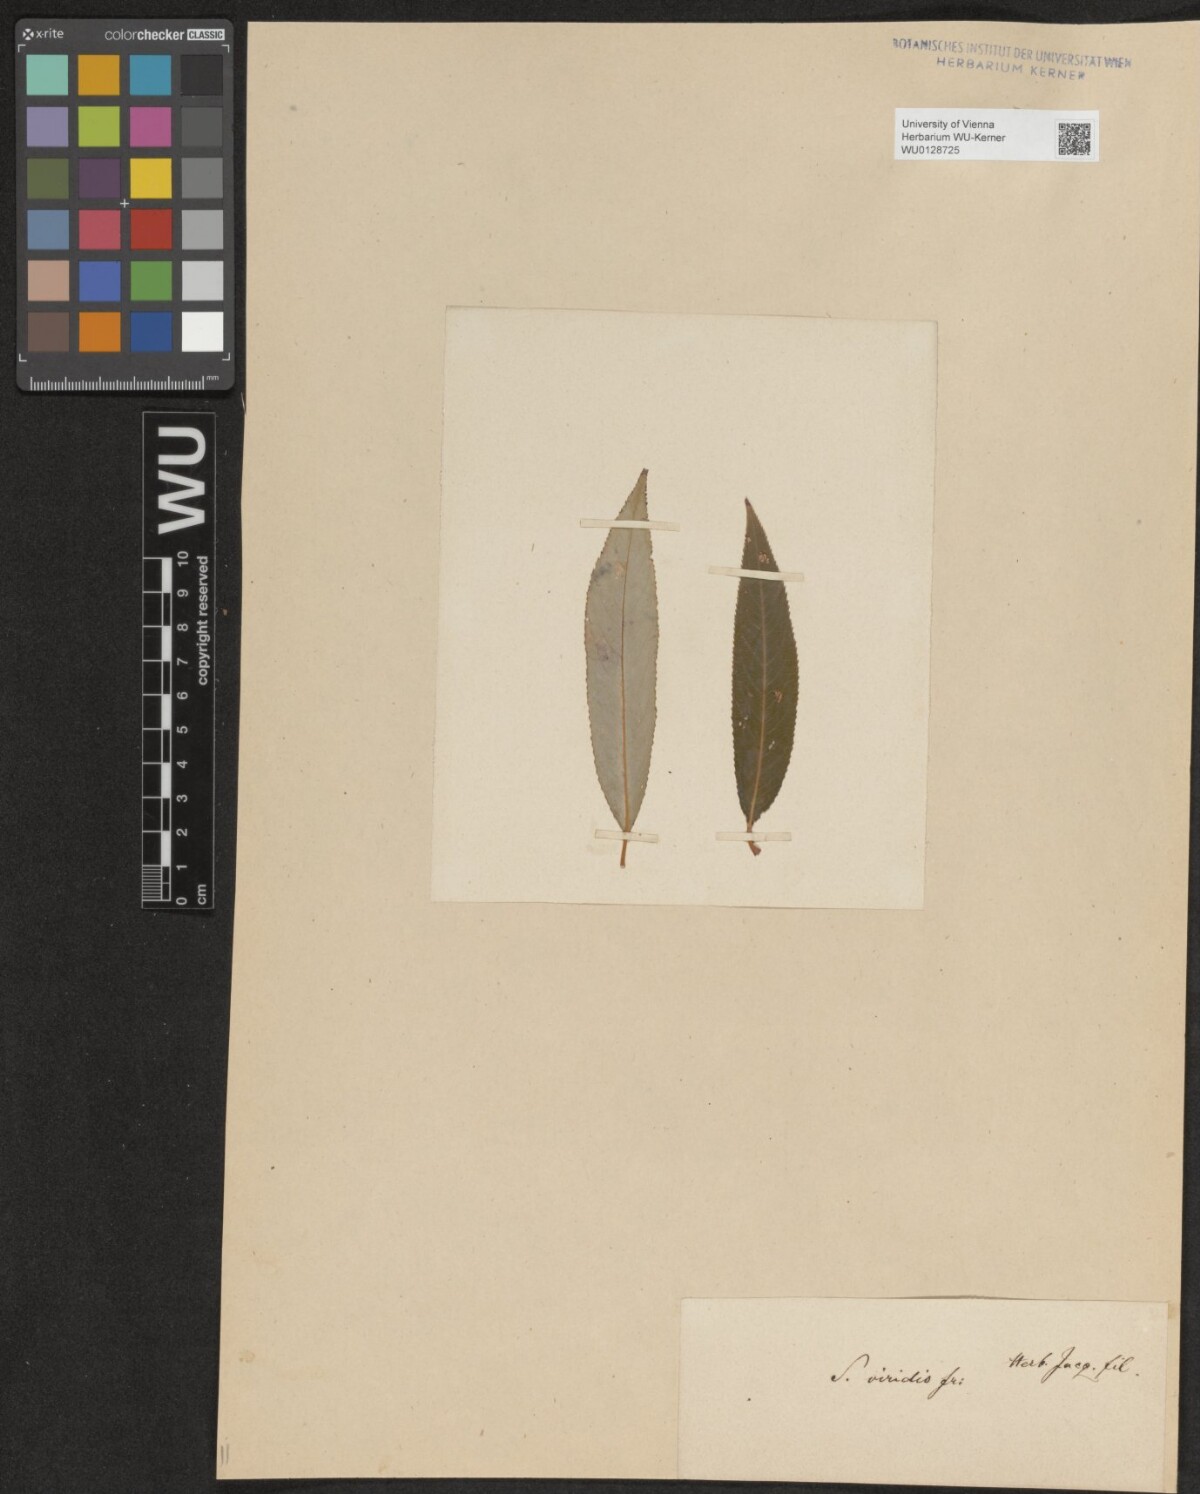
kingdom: Plantae
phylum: Tracheophyta
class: Magnoliopsida
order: Malpighiales
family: Salicaceae
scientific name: Salicaceae
